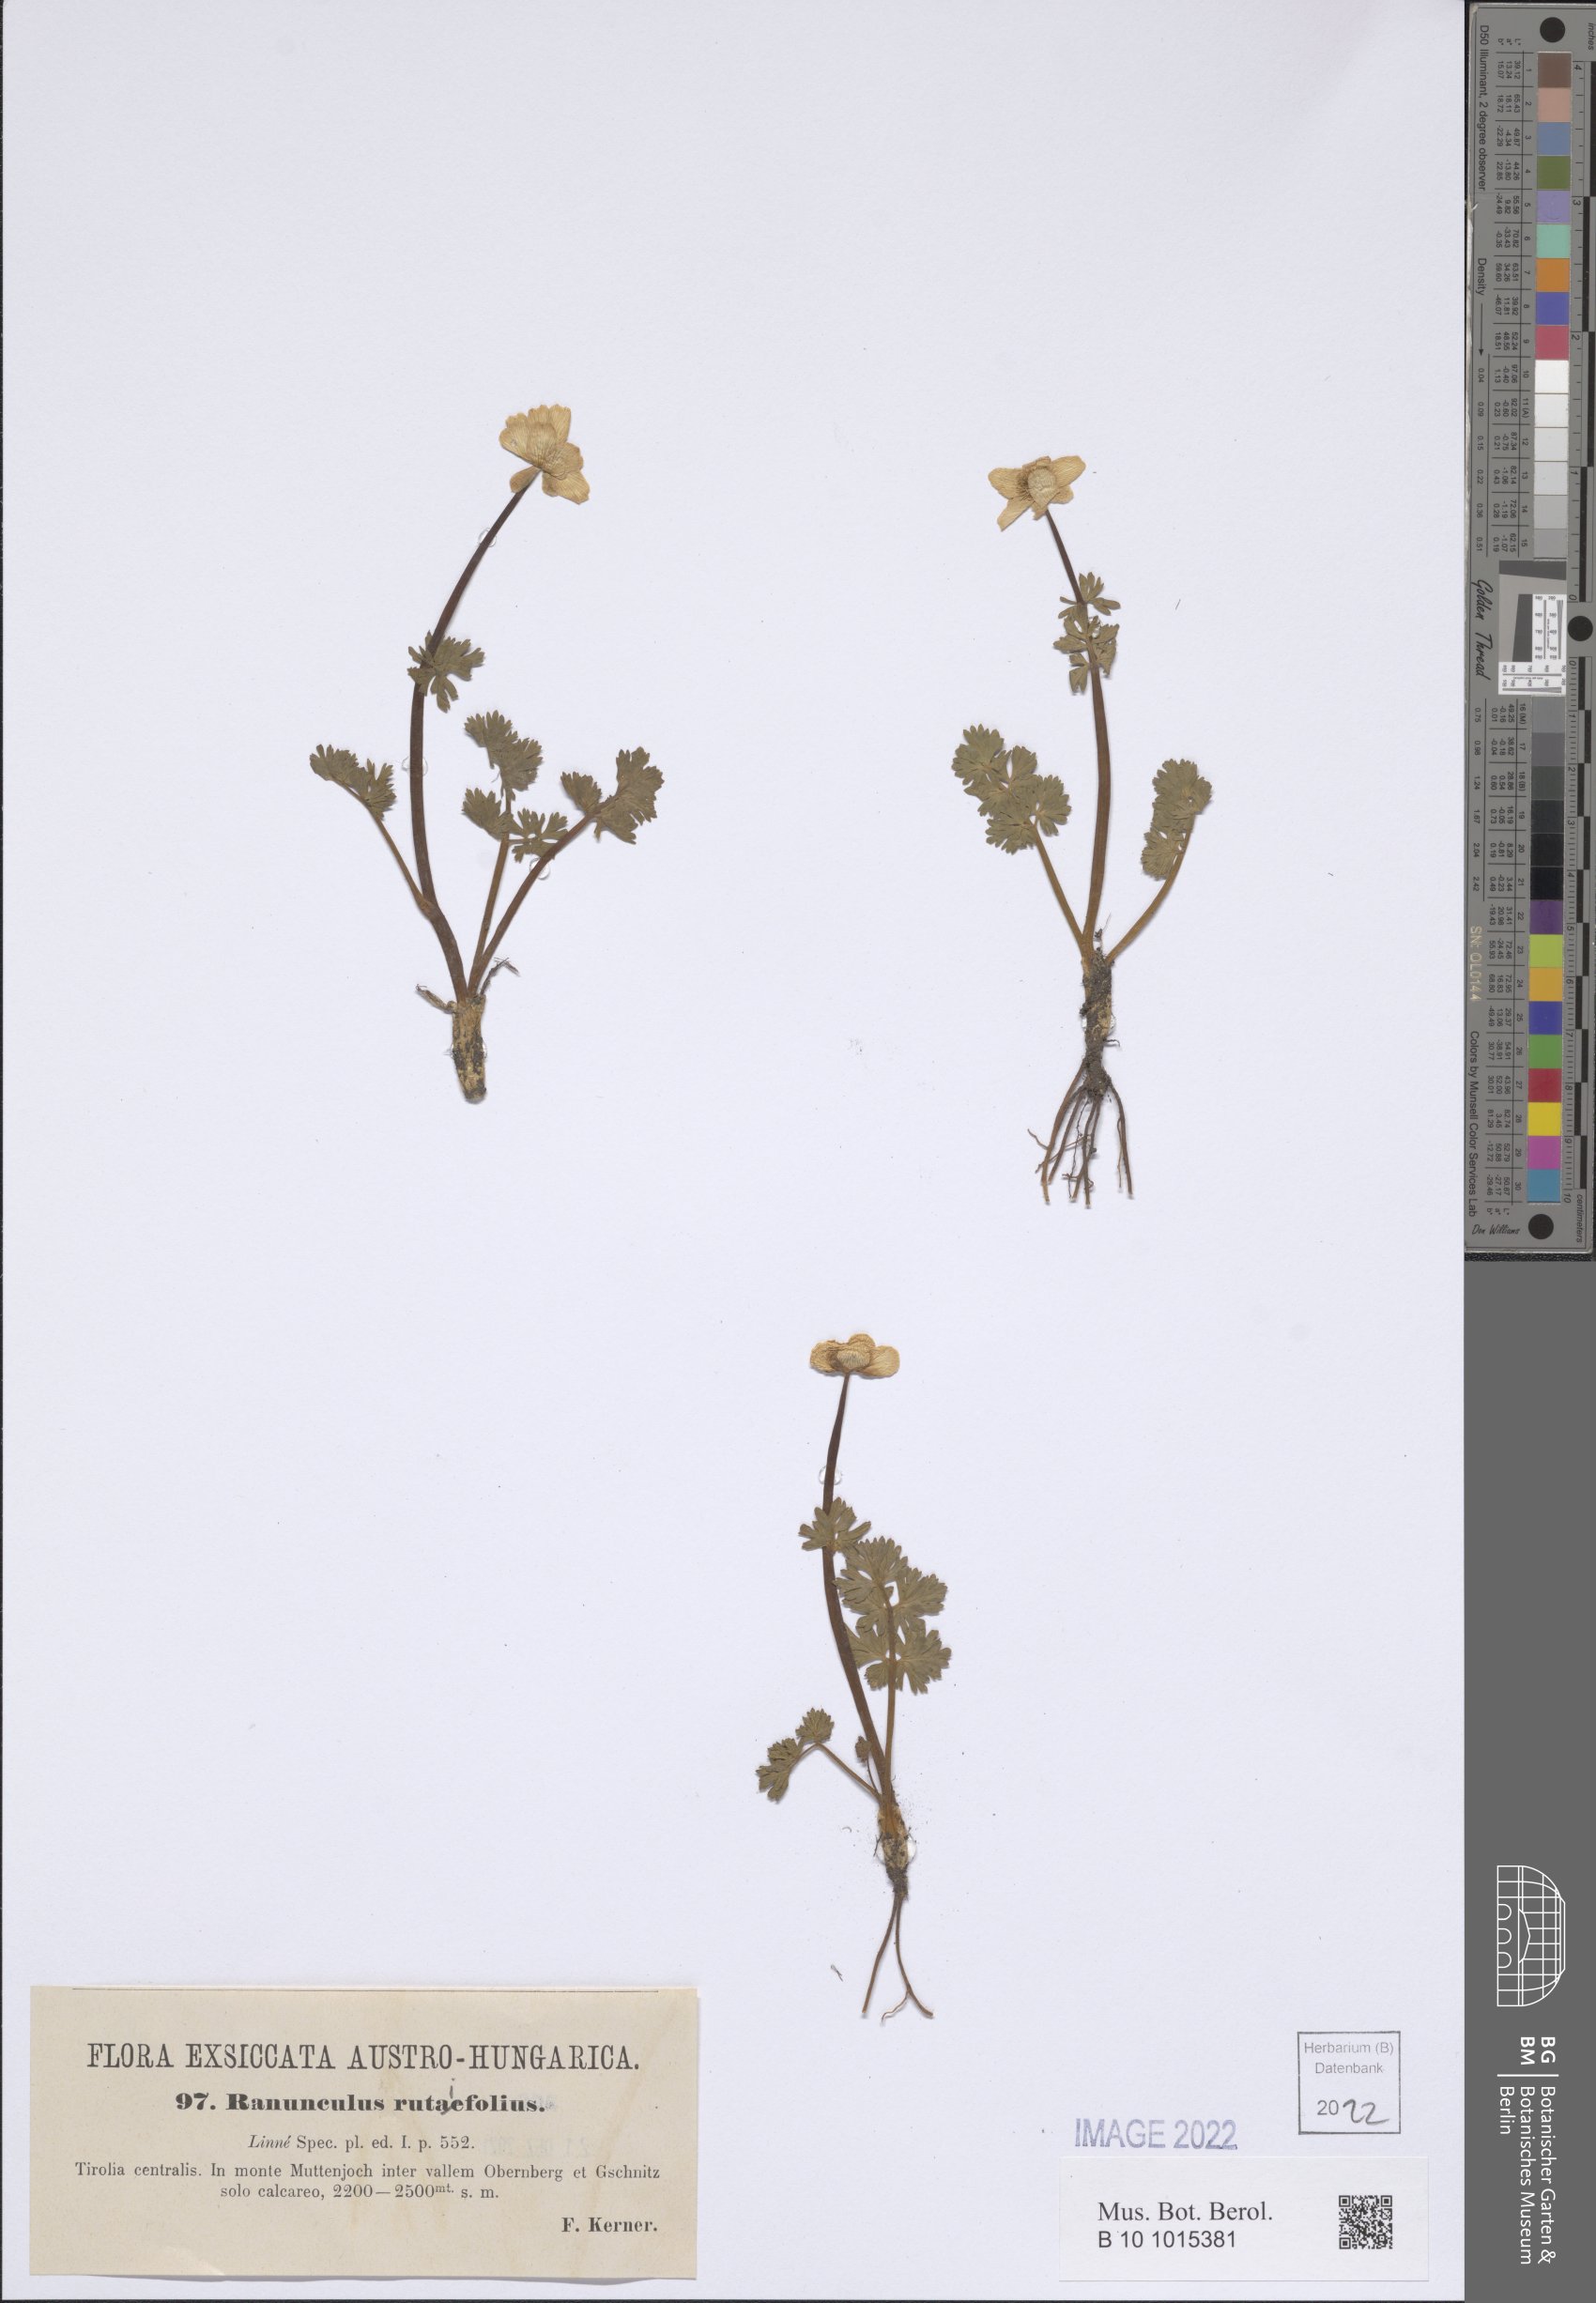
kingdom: Plantae
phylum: Tracheophyta
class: Magnoliopsida
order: Ranunculales
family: Ranunculaceae
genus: Callianthemum
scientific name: Callianthemum anemonoides
